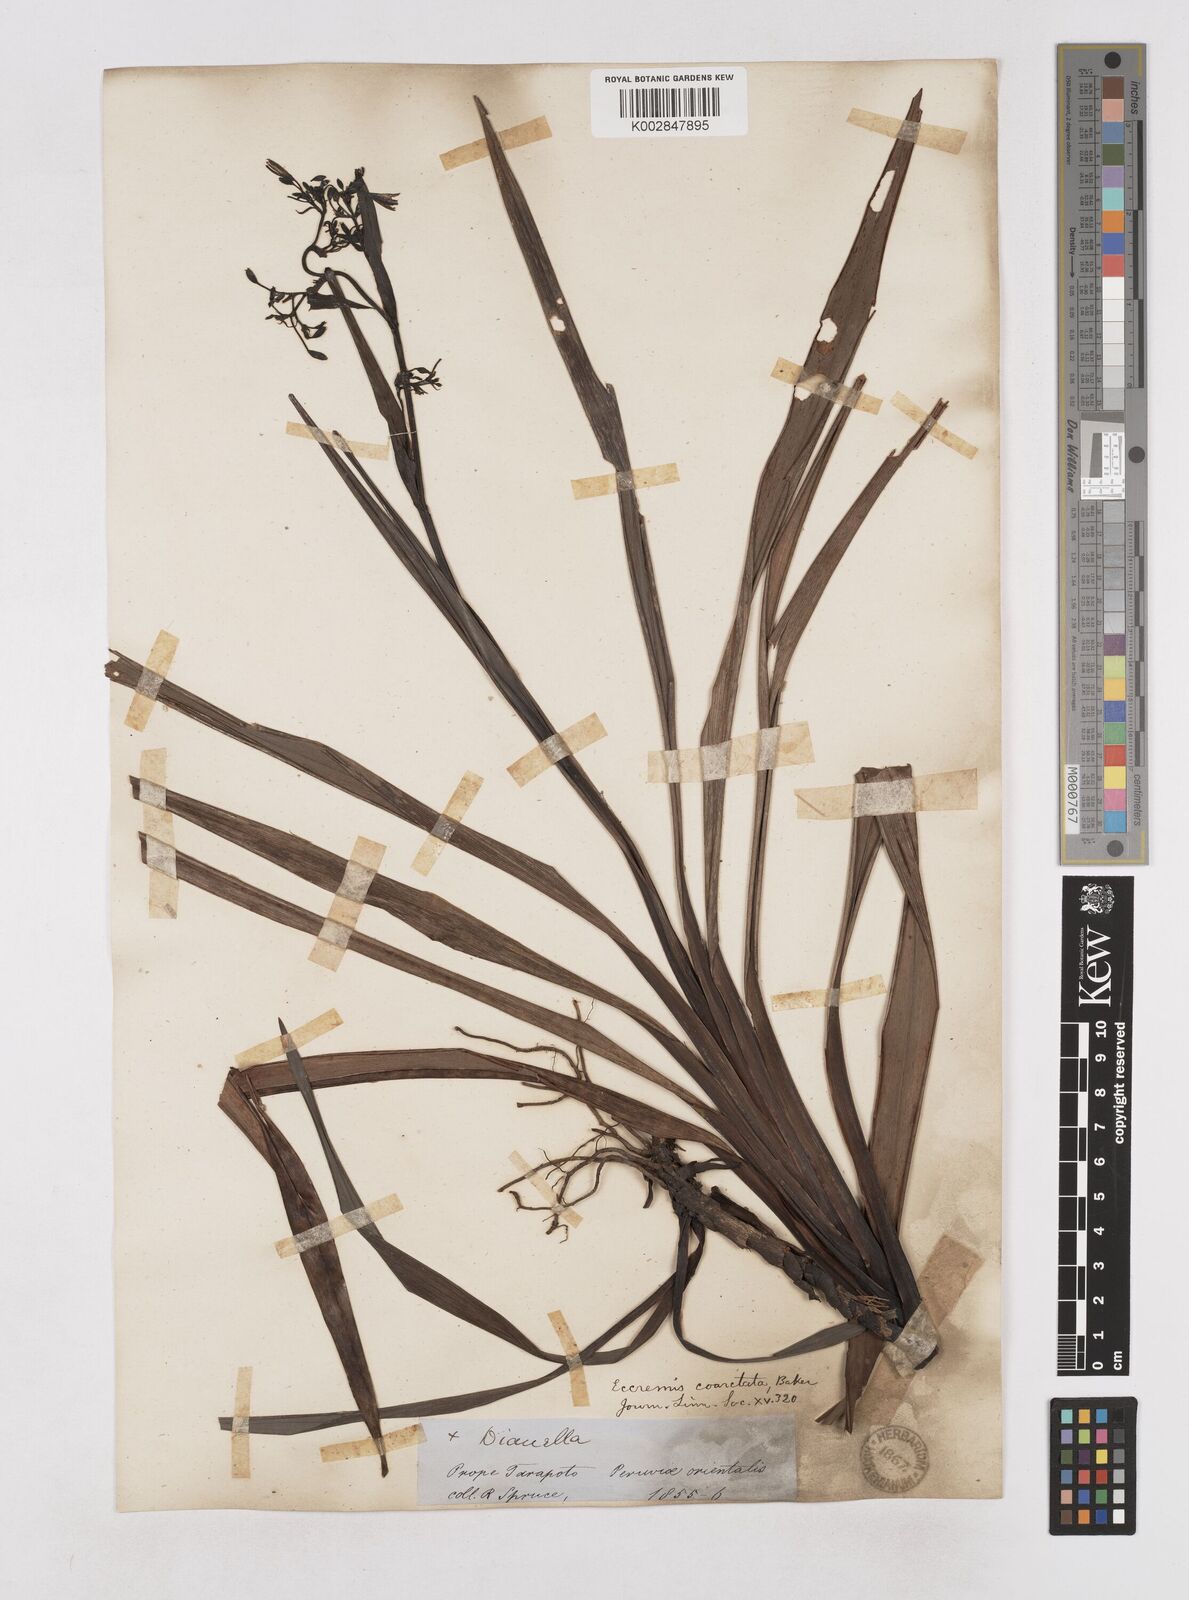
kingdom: Plantae
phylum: Tracheophyta
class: Liliopsida
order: Asparagales
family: Asphodelaceae
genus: Excremis
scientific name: Excremis coarctata
